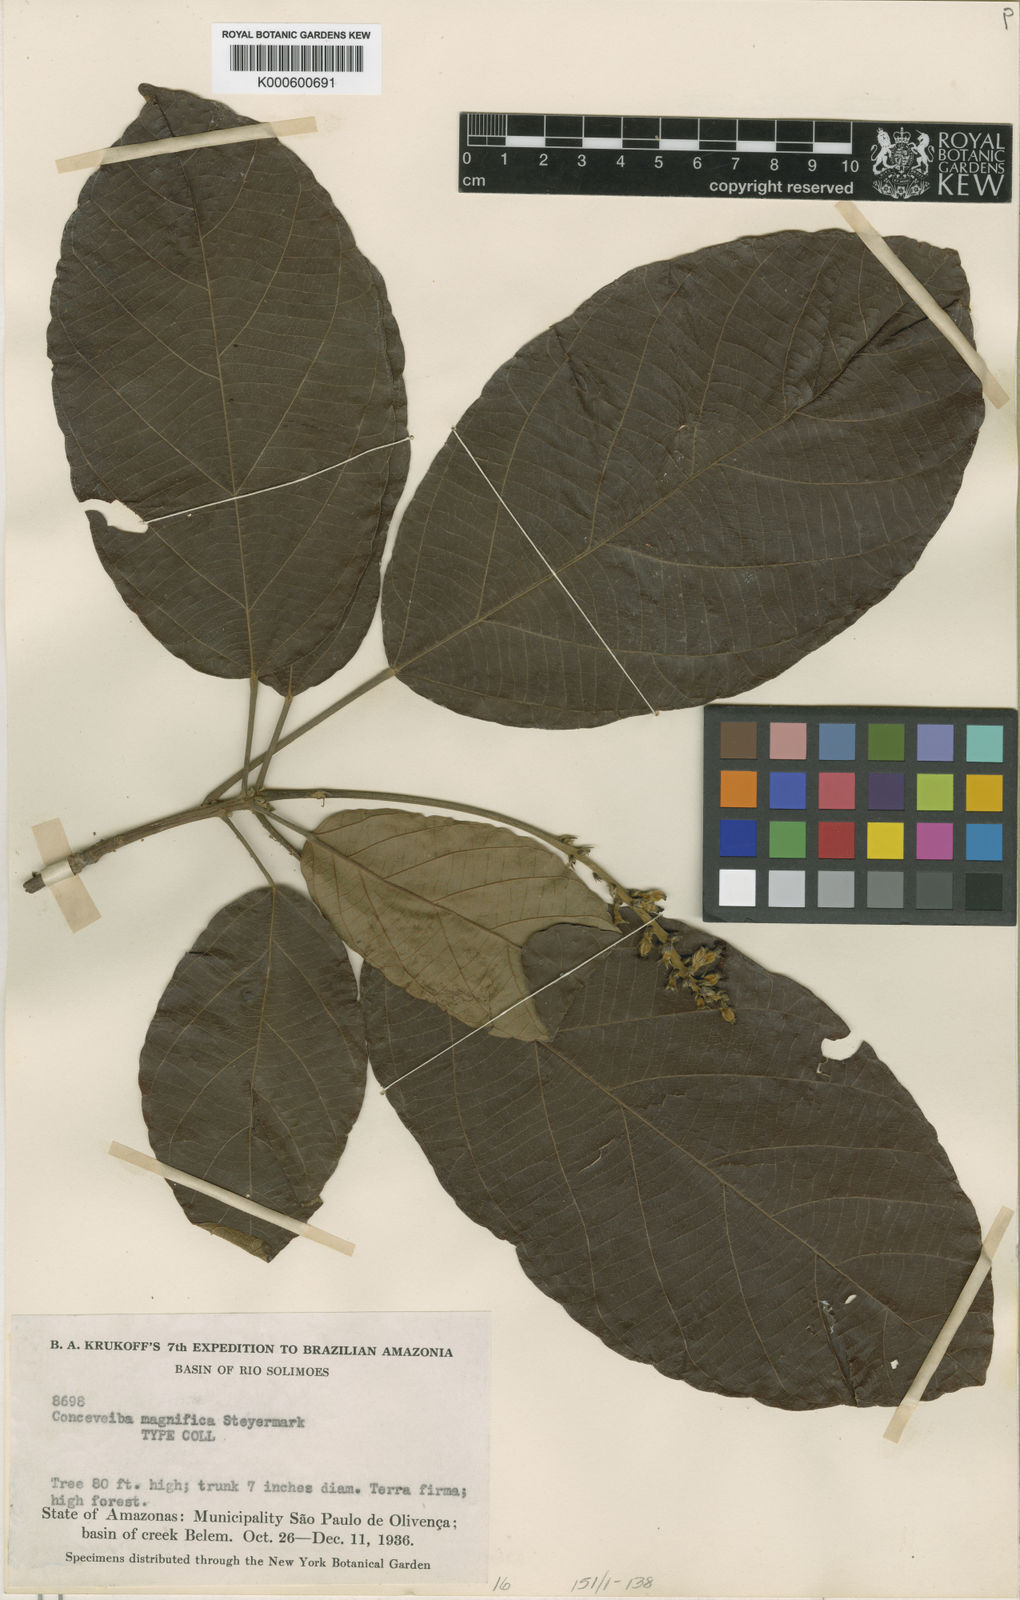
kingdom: Plantae
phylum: Tracheophyta
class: Magnoliopsida
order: Malpighiales
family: Euphorbiaceae
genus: Conceveiba
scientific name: Conceveiba latifolia
